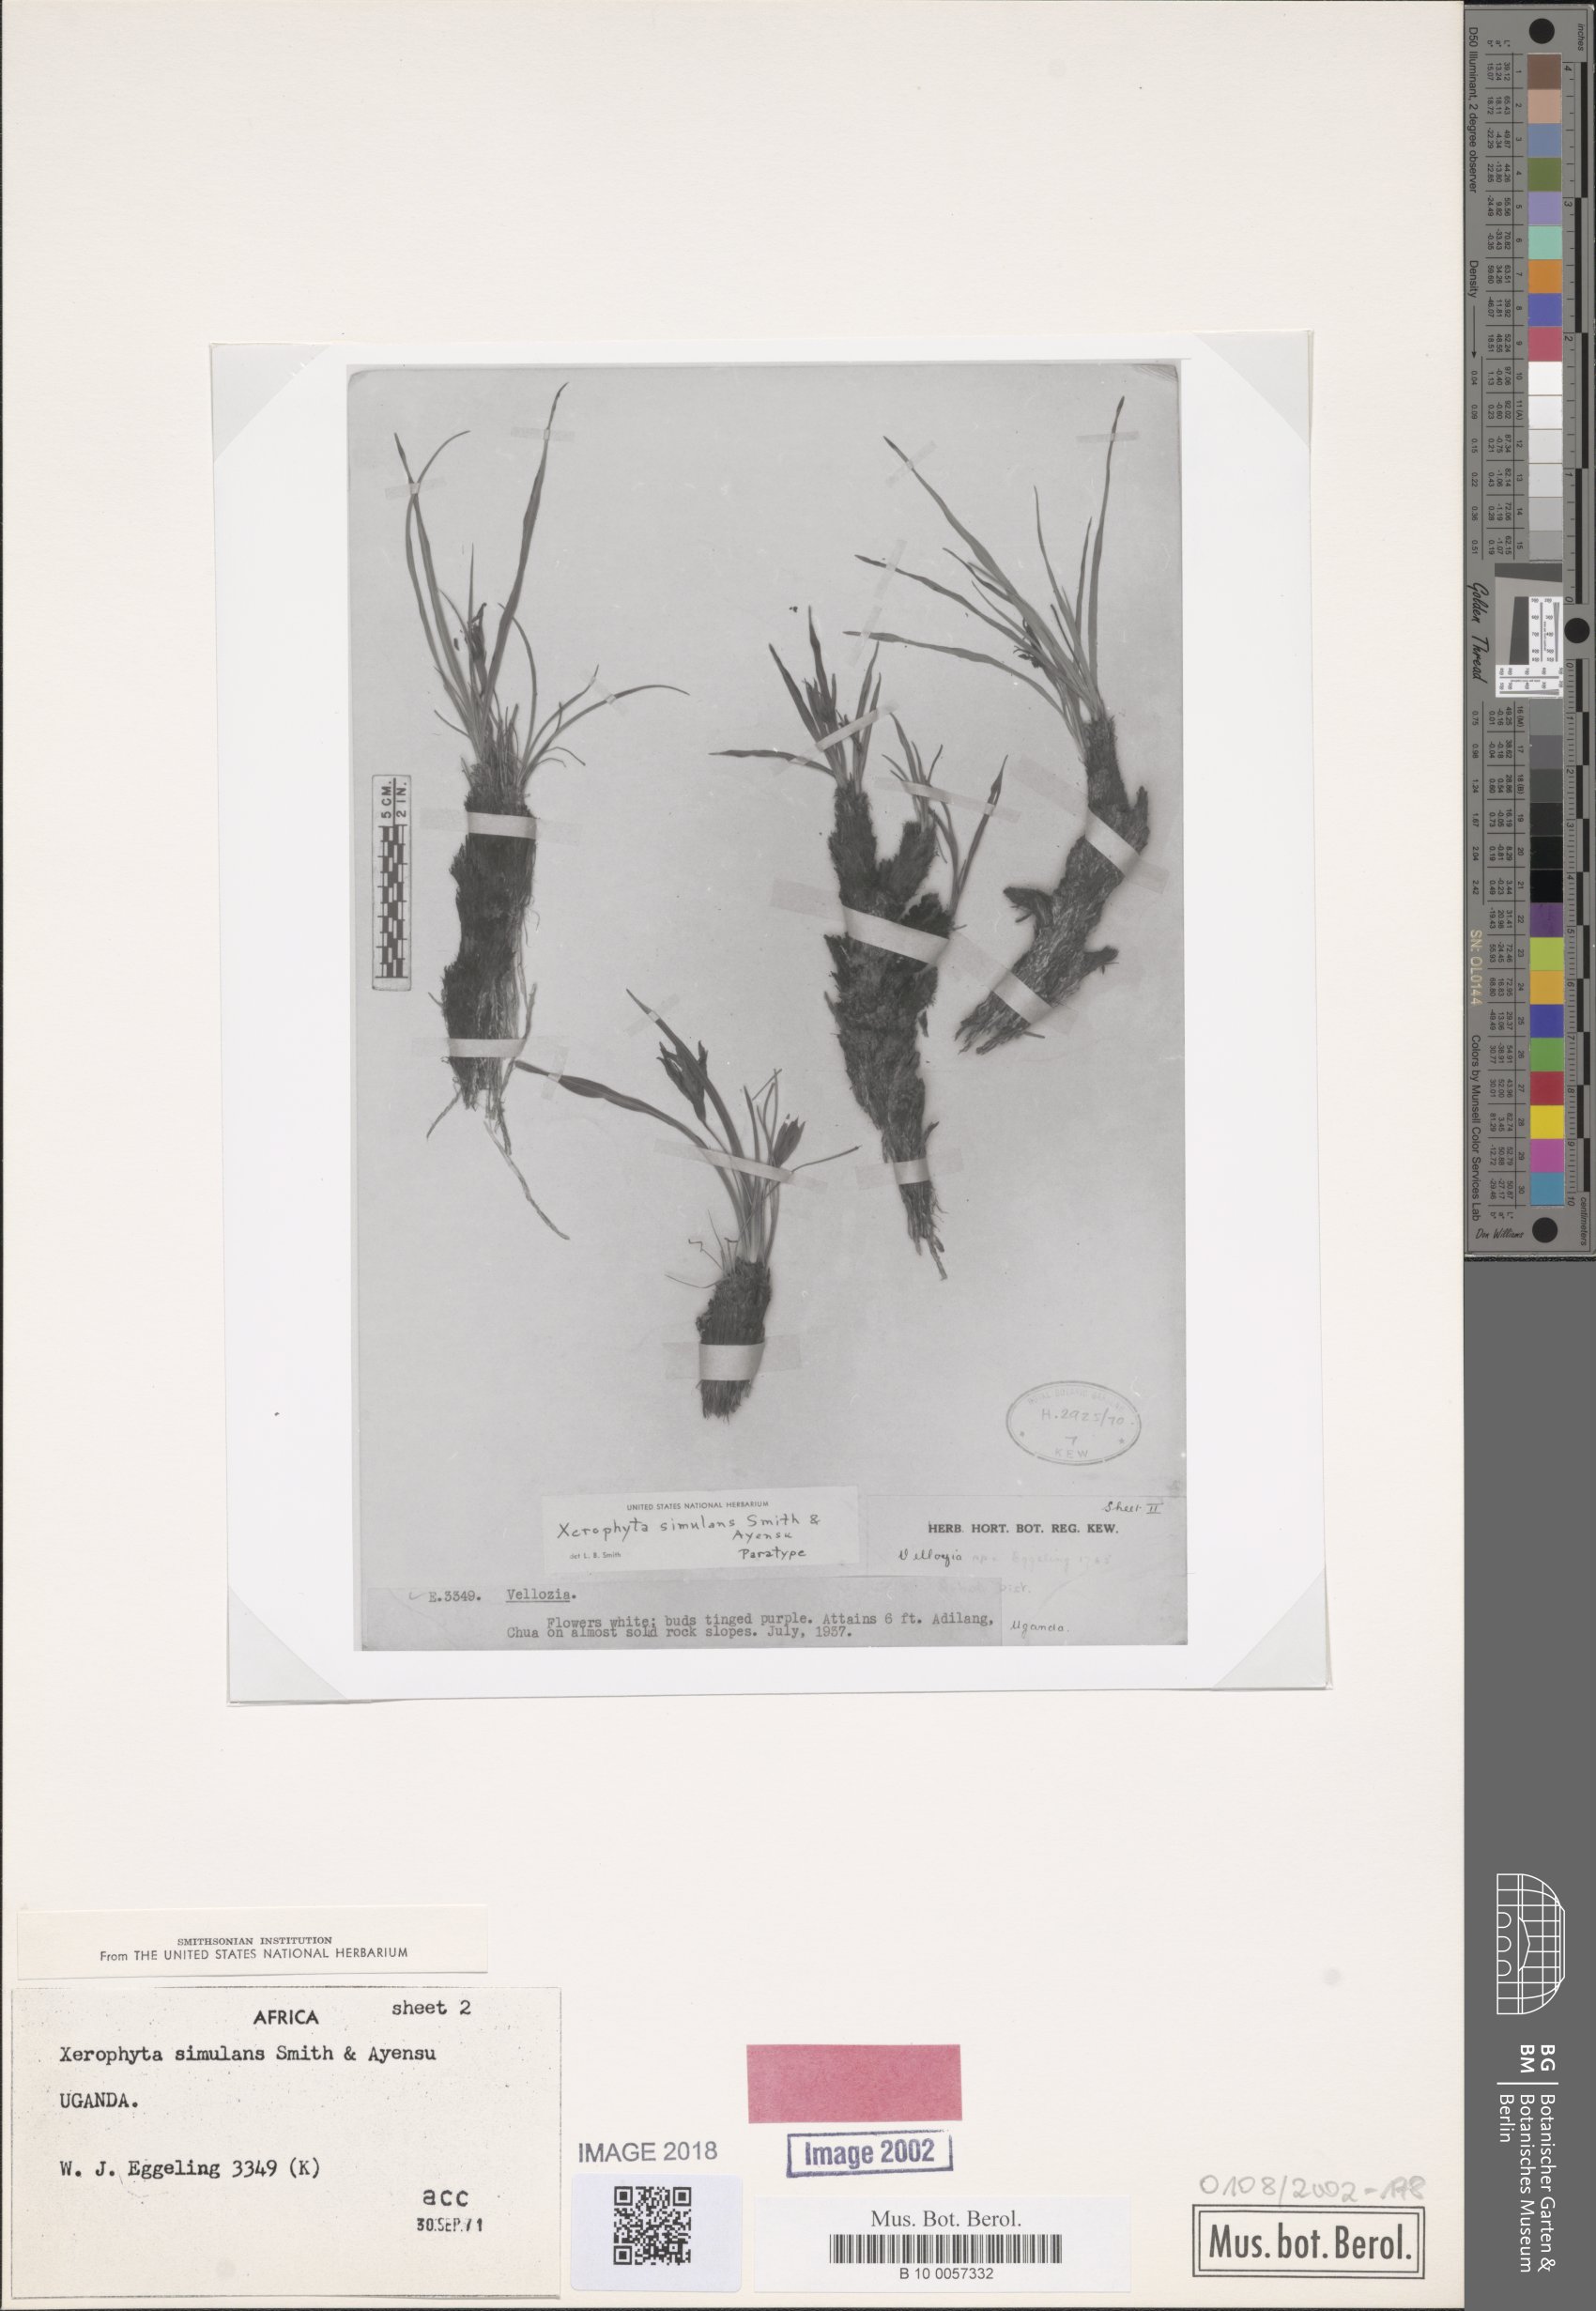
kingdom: Plantae
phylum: Tracheophyta
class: Liliopsida
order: Pandanales
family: Velloziaceae
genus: Xerophyta
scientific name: Xerophyta simulans
